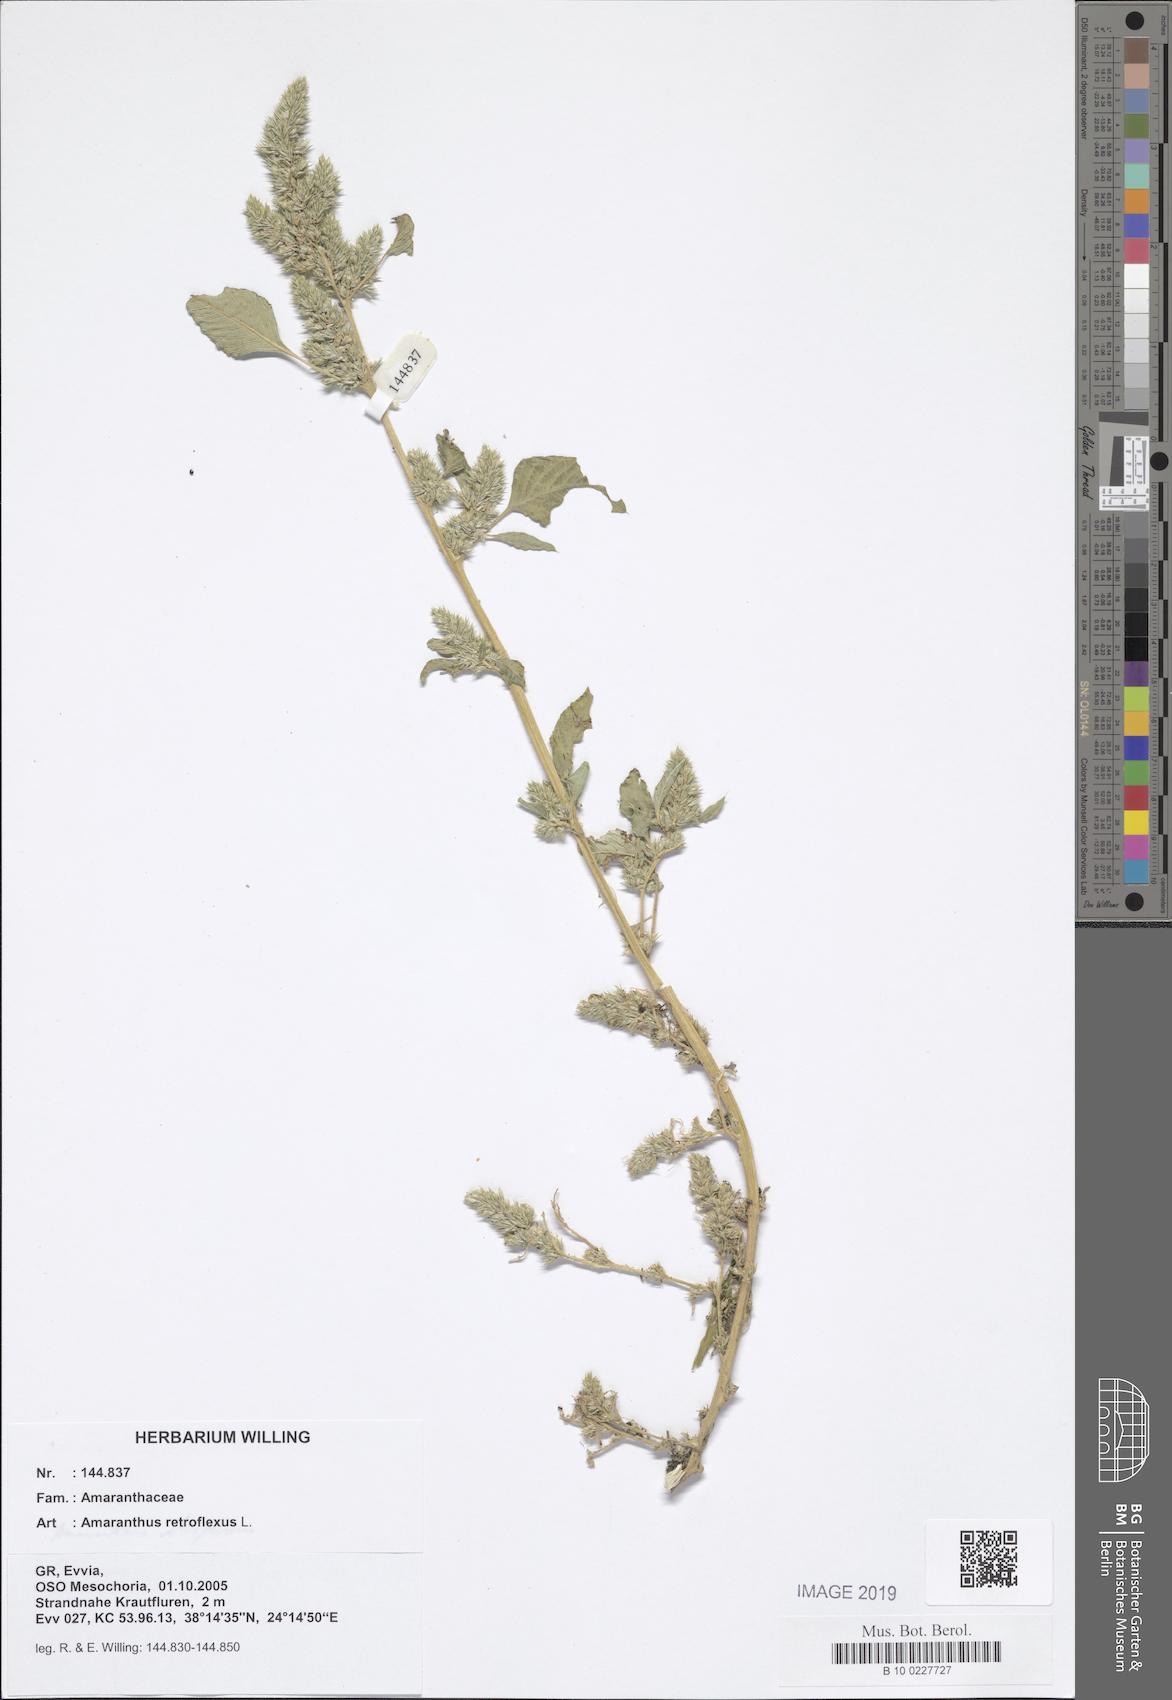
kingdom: Plantae
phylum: Tracheophyta
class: Magnoliopsida
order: Caryophyllales
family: Amaranthaceae
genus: Amaranthus
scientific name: Amaranthus retroflexus
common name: Redroot amaranth
